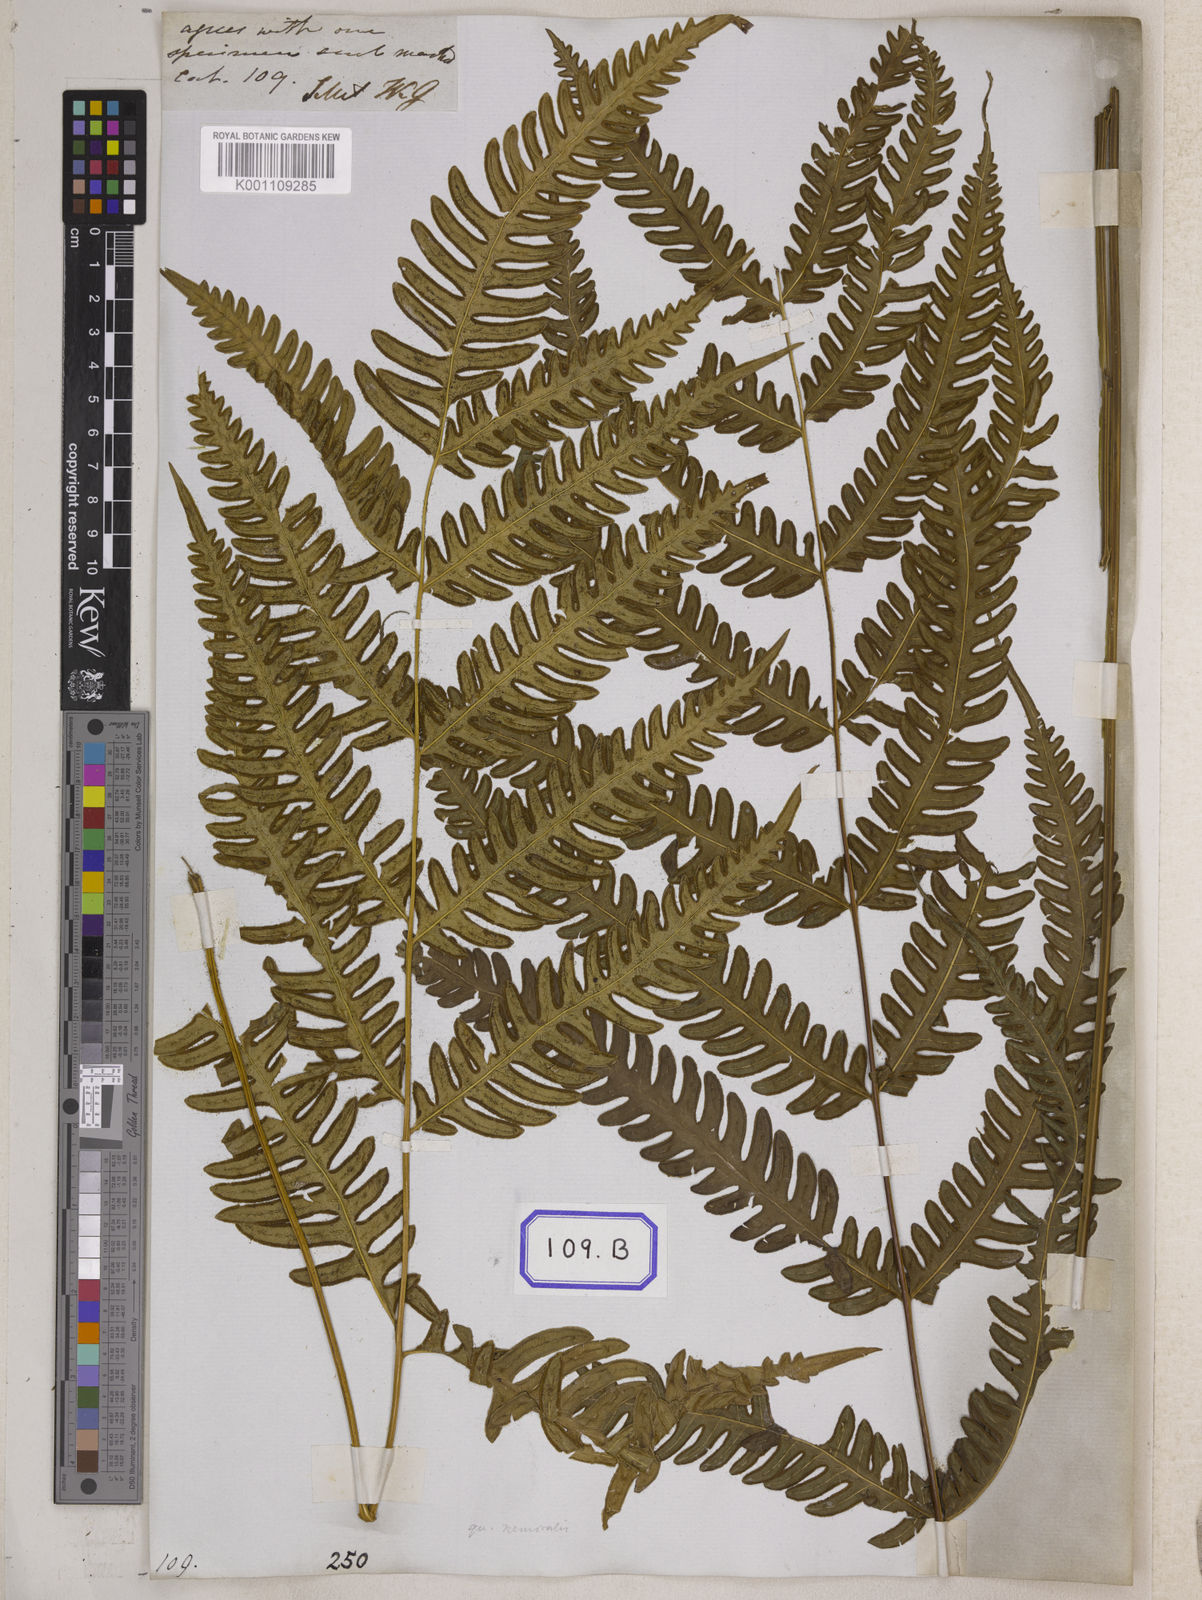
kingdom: Plantae
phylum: Tracheophyta
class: Polypodiopsida
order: Polypodiales
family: Pteridaceae
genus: Pteris
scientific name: Pteris longipes
